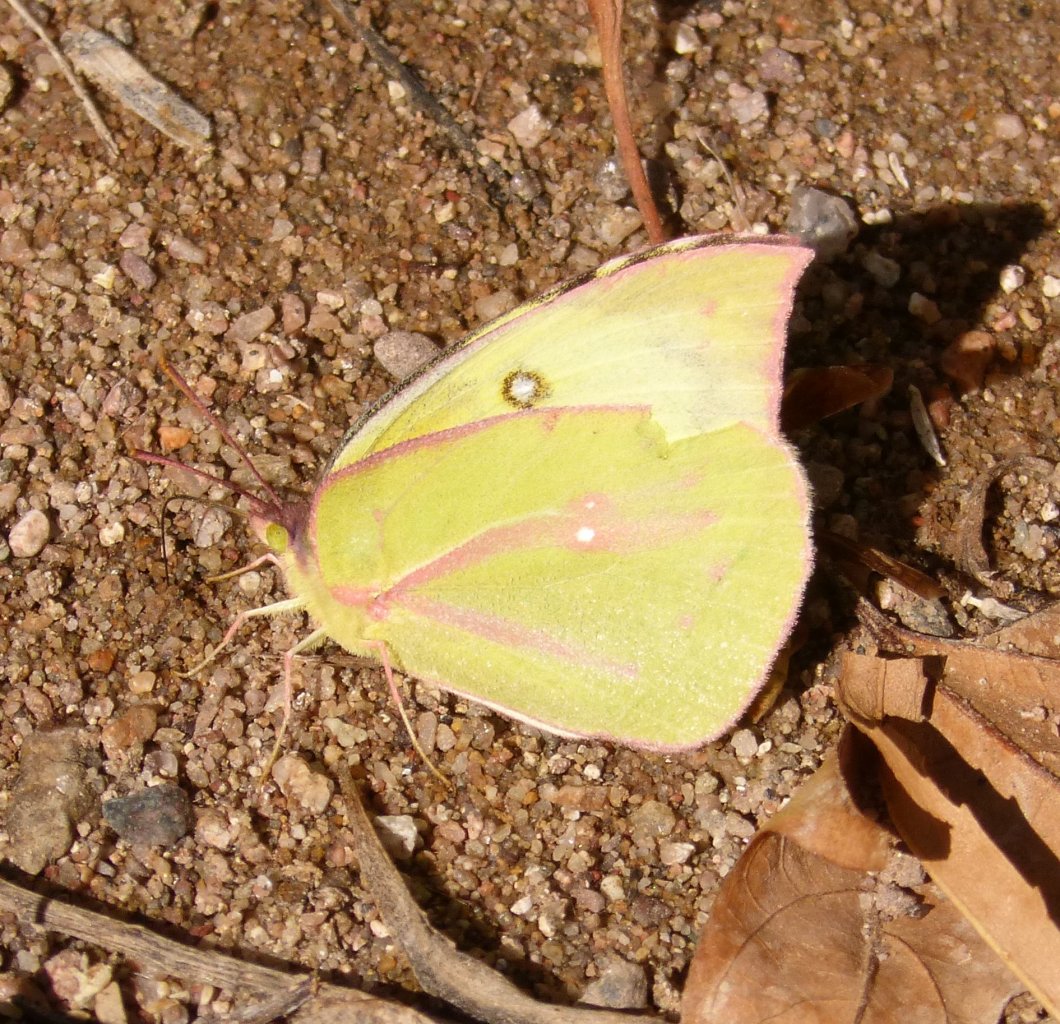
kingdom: Animalia
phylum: Arthropoda
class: Insecta
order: Lepidoptera
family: Pieridae
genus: Zerene
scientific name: Zerene cesonia
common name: Southern Dogface
